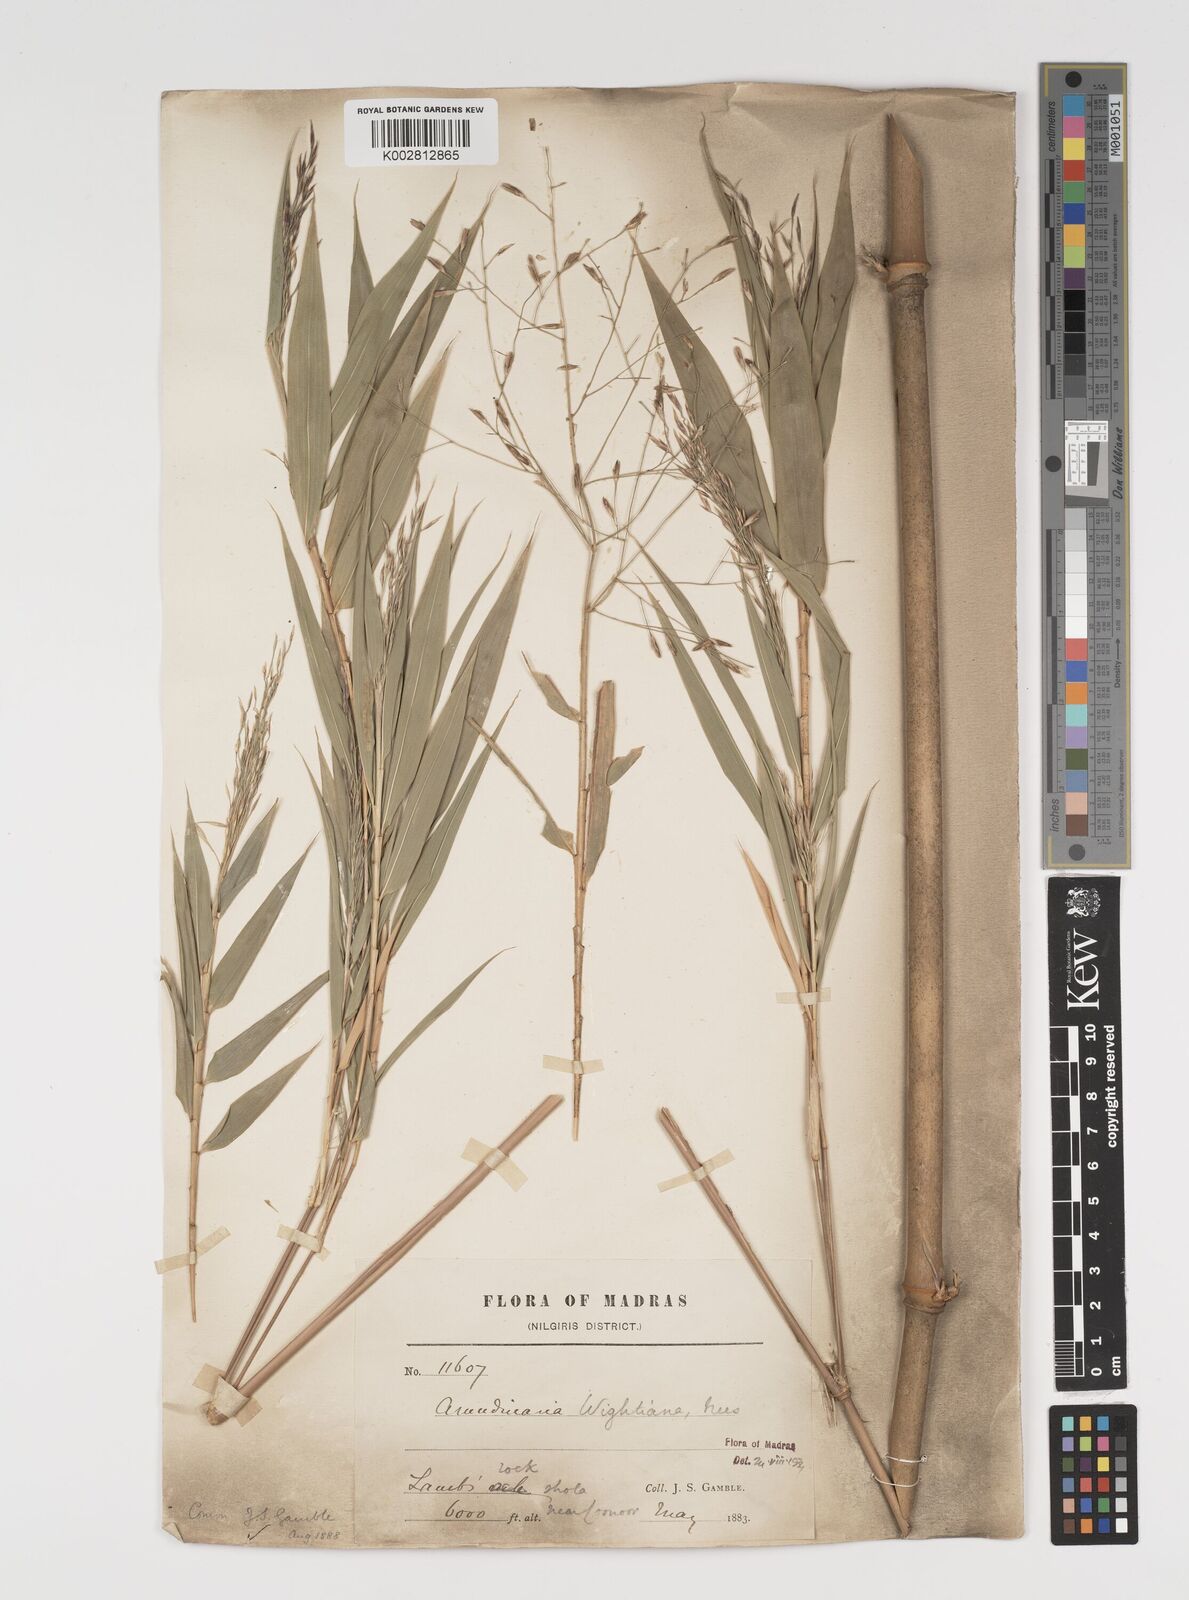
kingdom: Plantae
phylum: Tracheophyta
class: Liliopsida
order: Poales
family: Poaceae
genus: Kuruna
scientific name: Kuruna wightiana
